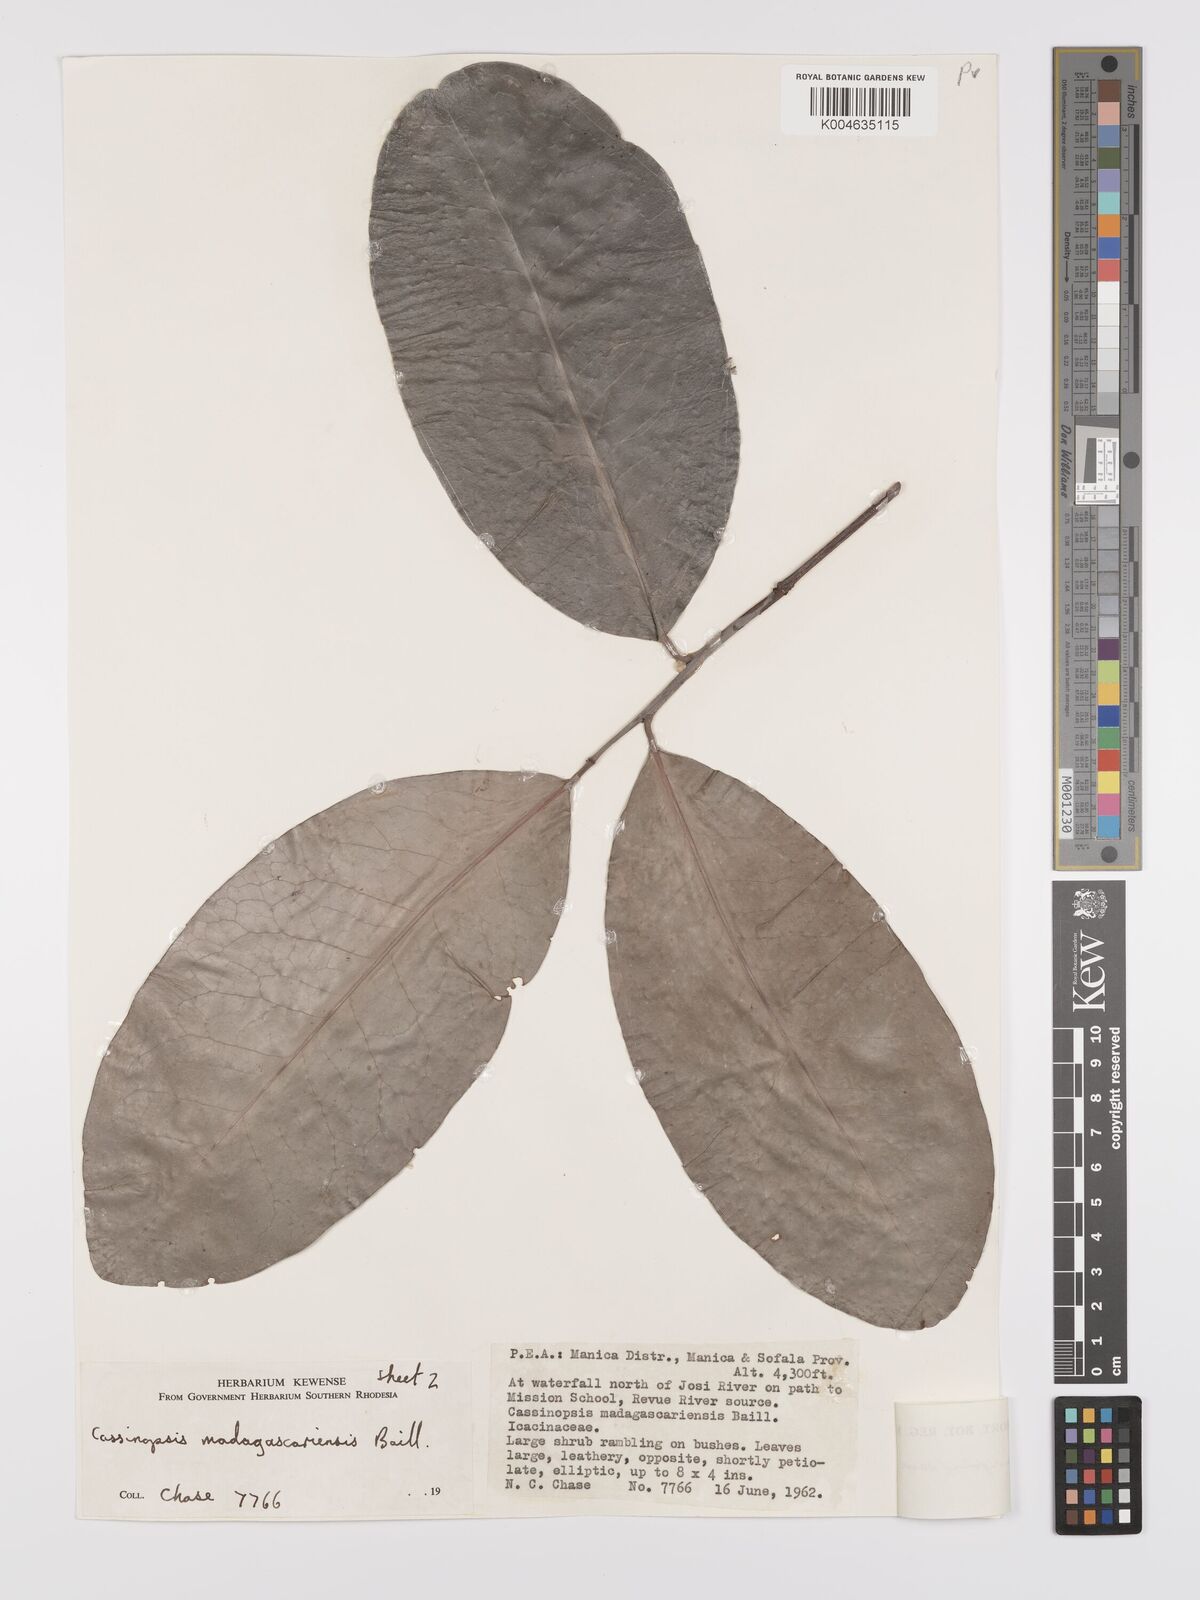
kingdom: Plantae
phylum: Tracheophyta
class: Magnoliopsida
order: Celastrales
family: Celastraceae
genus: Allocassine
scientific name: Allocassine laurifolia
